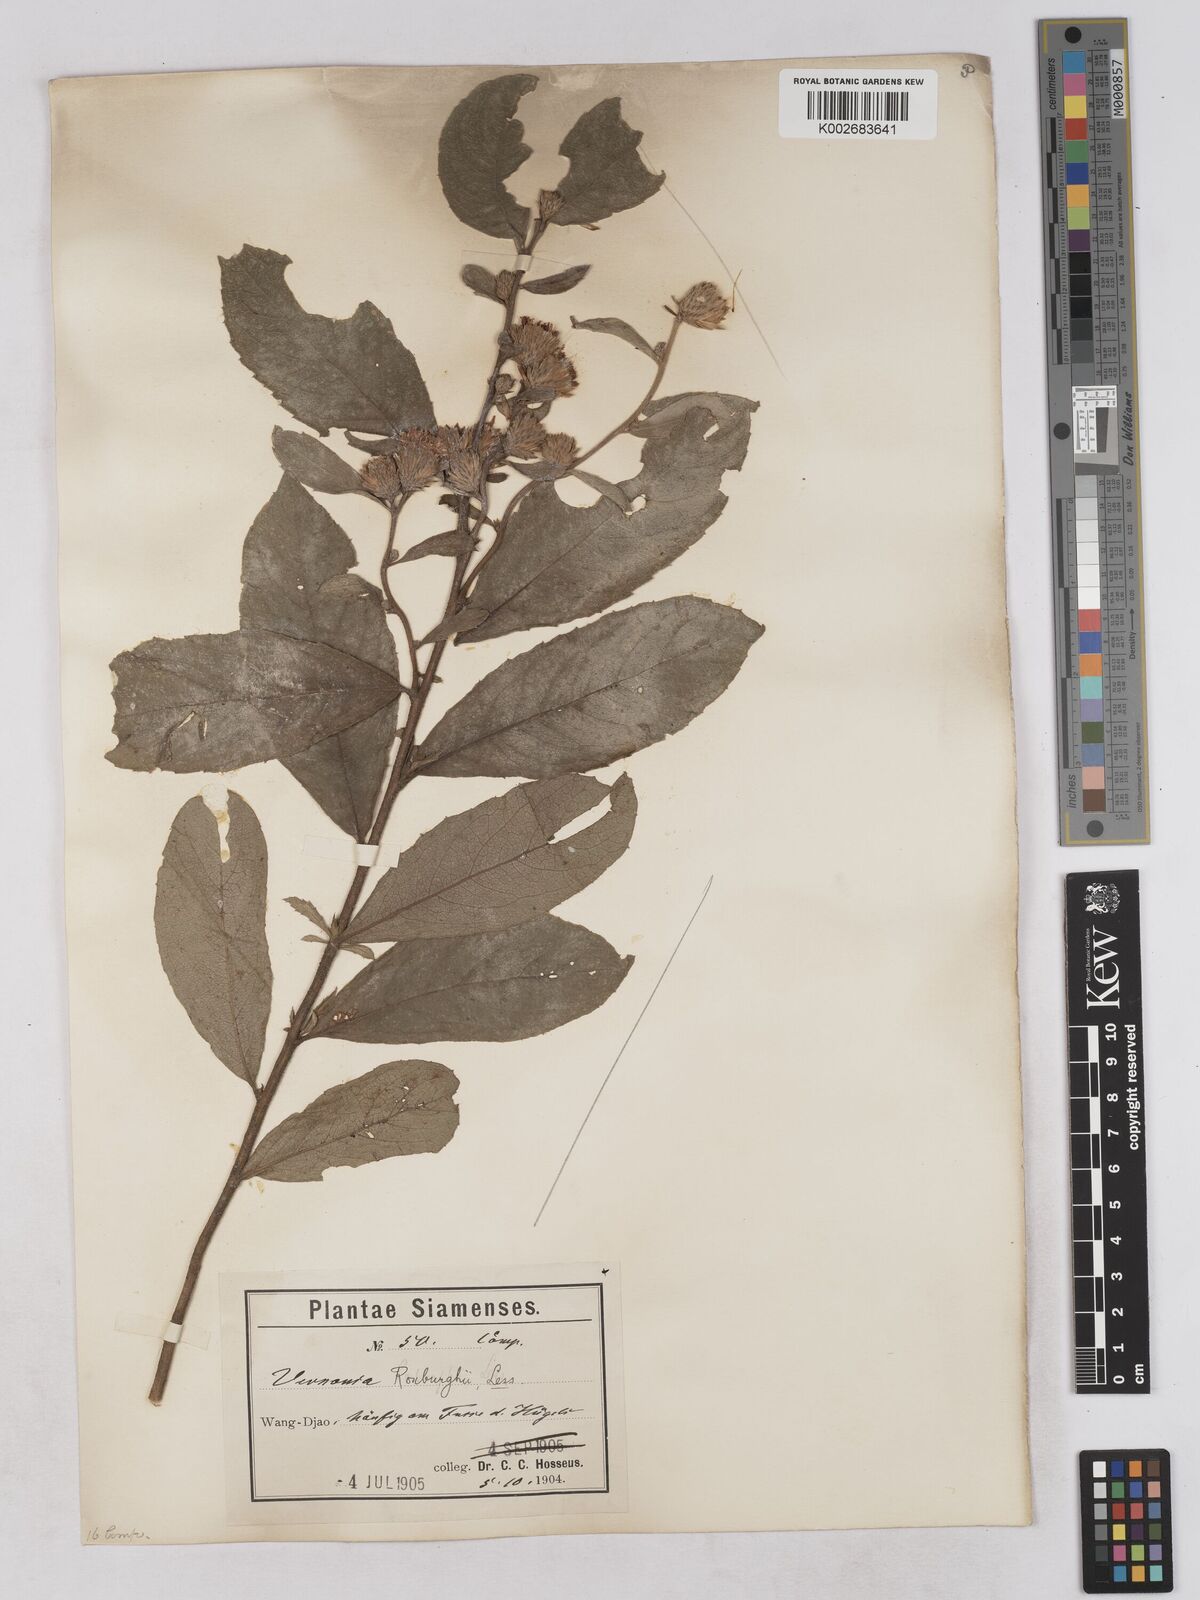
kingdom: Plantae
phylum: Tracheophyta
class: Magnoliopsida
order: Asterales
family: Asteraceae
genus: Acilepis
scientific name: Acilepis aspera
